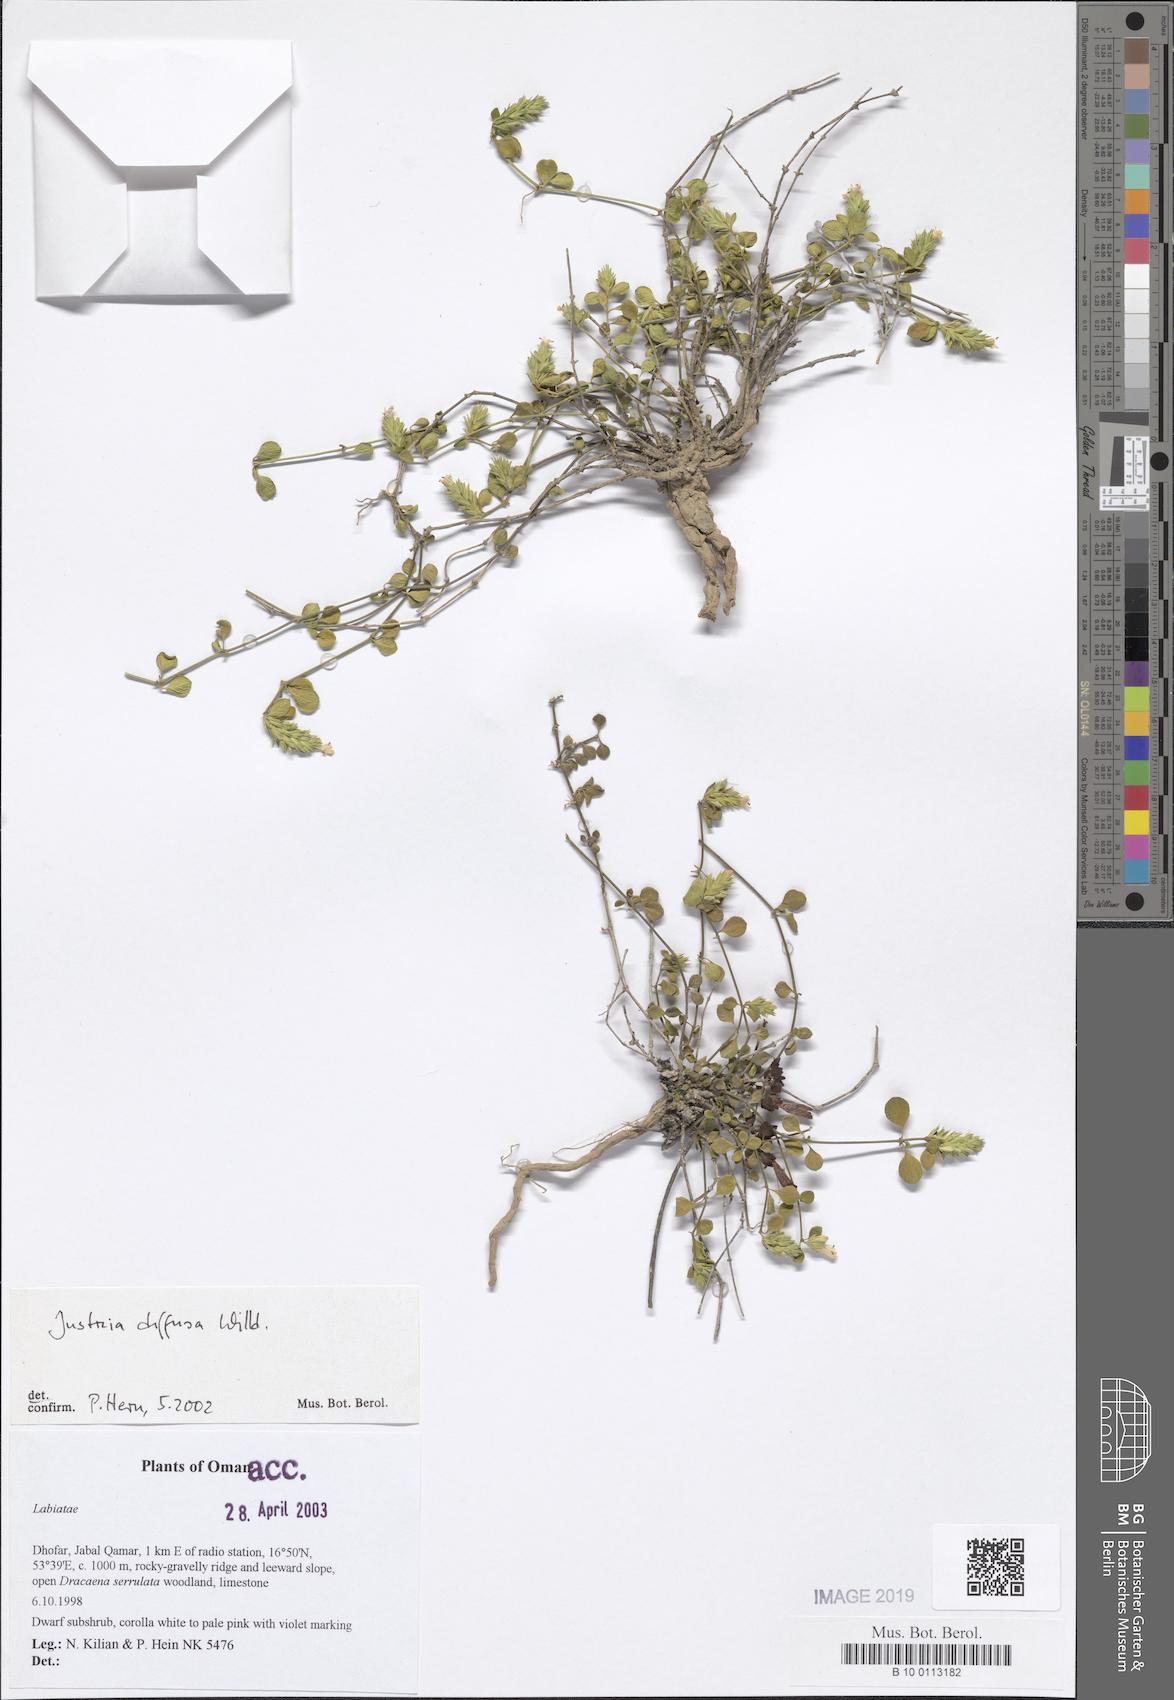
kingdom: Plantae
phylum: Tracheophyta
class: Magnoliopsida
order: Lamiales
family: Acanthaceae
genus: Rostellularia
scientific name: Rostellularia diffusa
